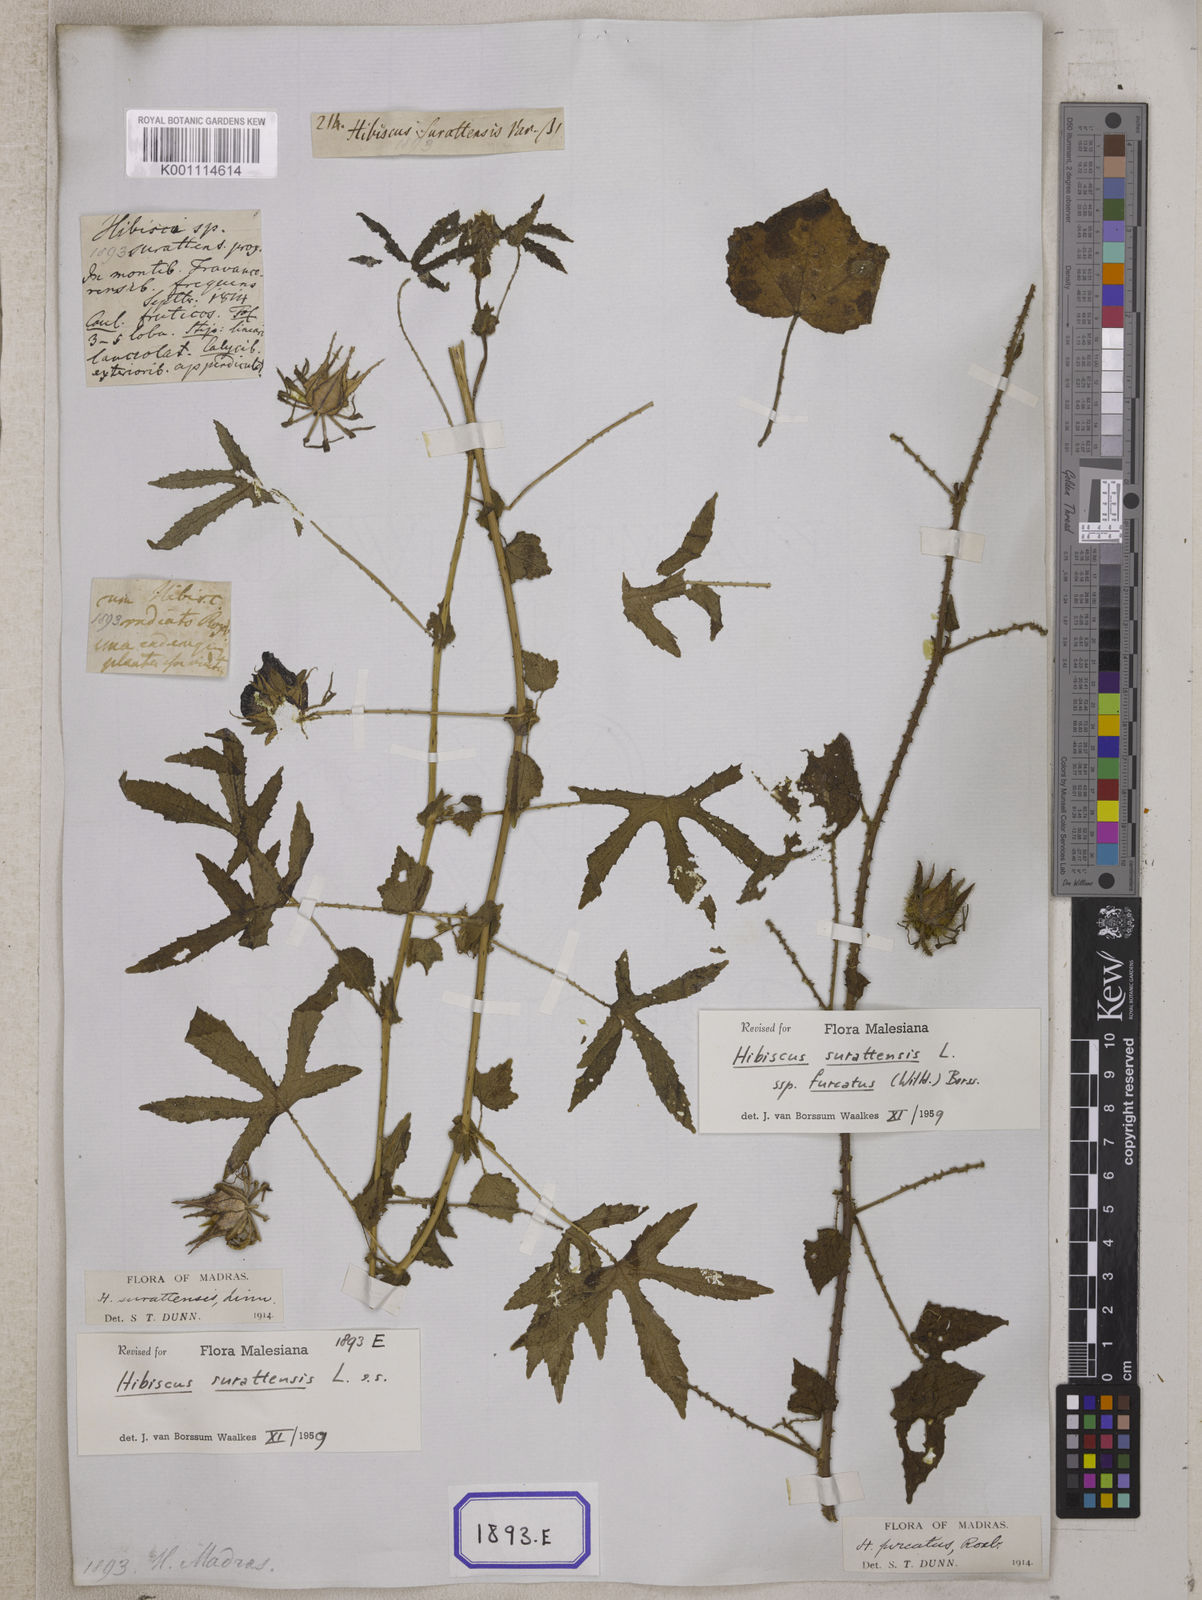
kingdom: Plantae
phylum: Tracheophyta
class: Magnoliopsida
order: Malvales
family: Malvaceae
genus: Hibiscus
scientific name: Hibiscus surattensis
